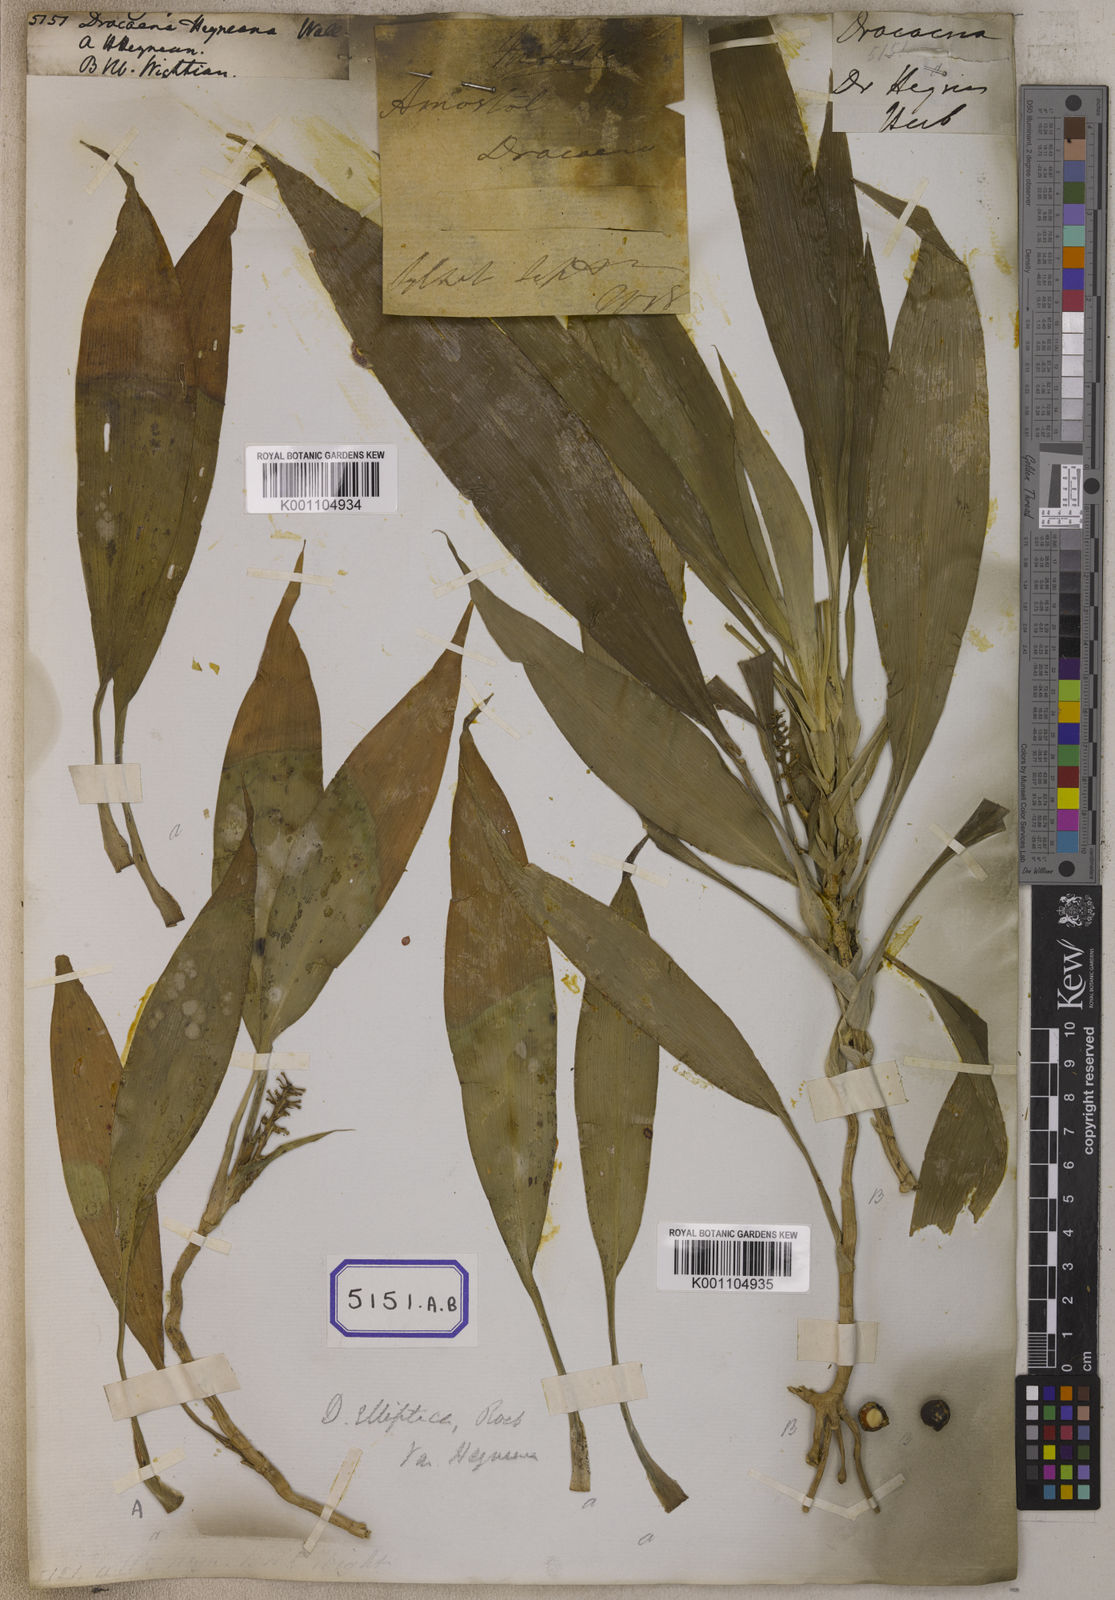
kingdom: Plantae
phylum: Tracheophyta
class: Liliopsida
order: Asparagales
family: Asparagaceae
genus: Dracaena
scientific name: Dracaena
